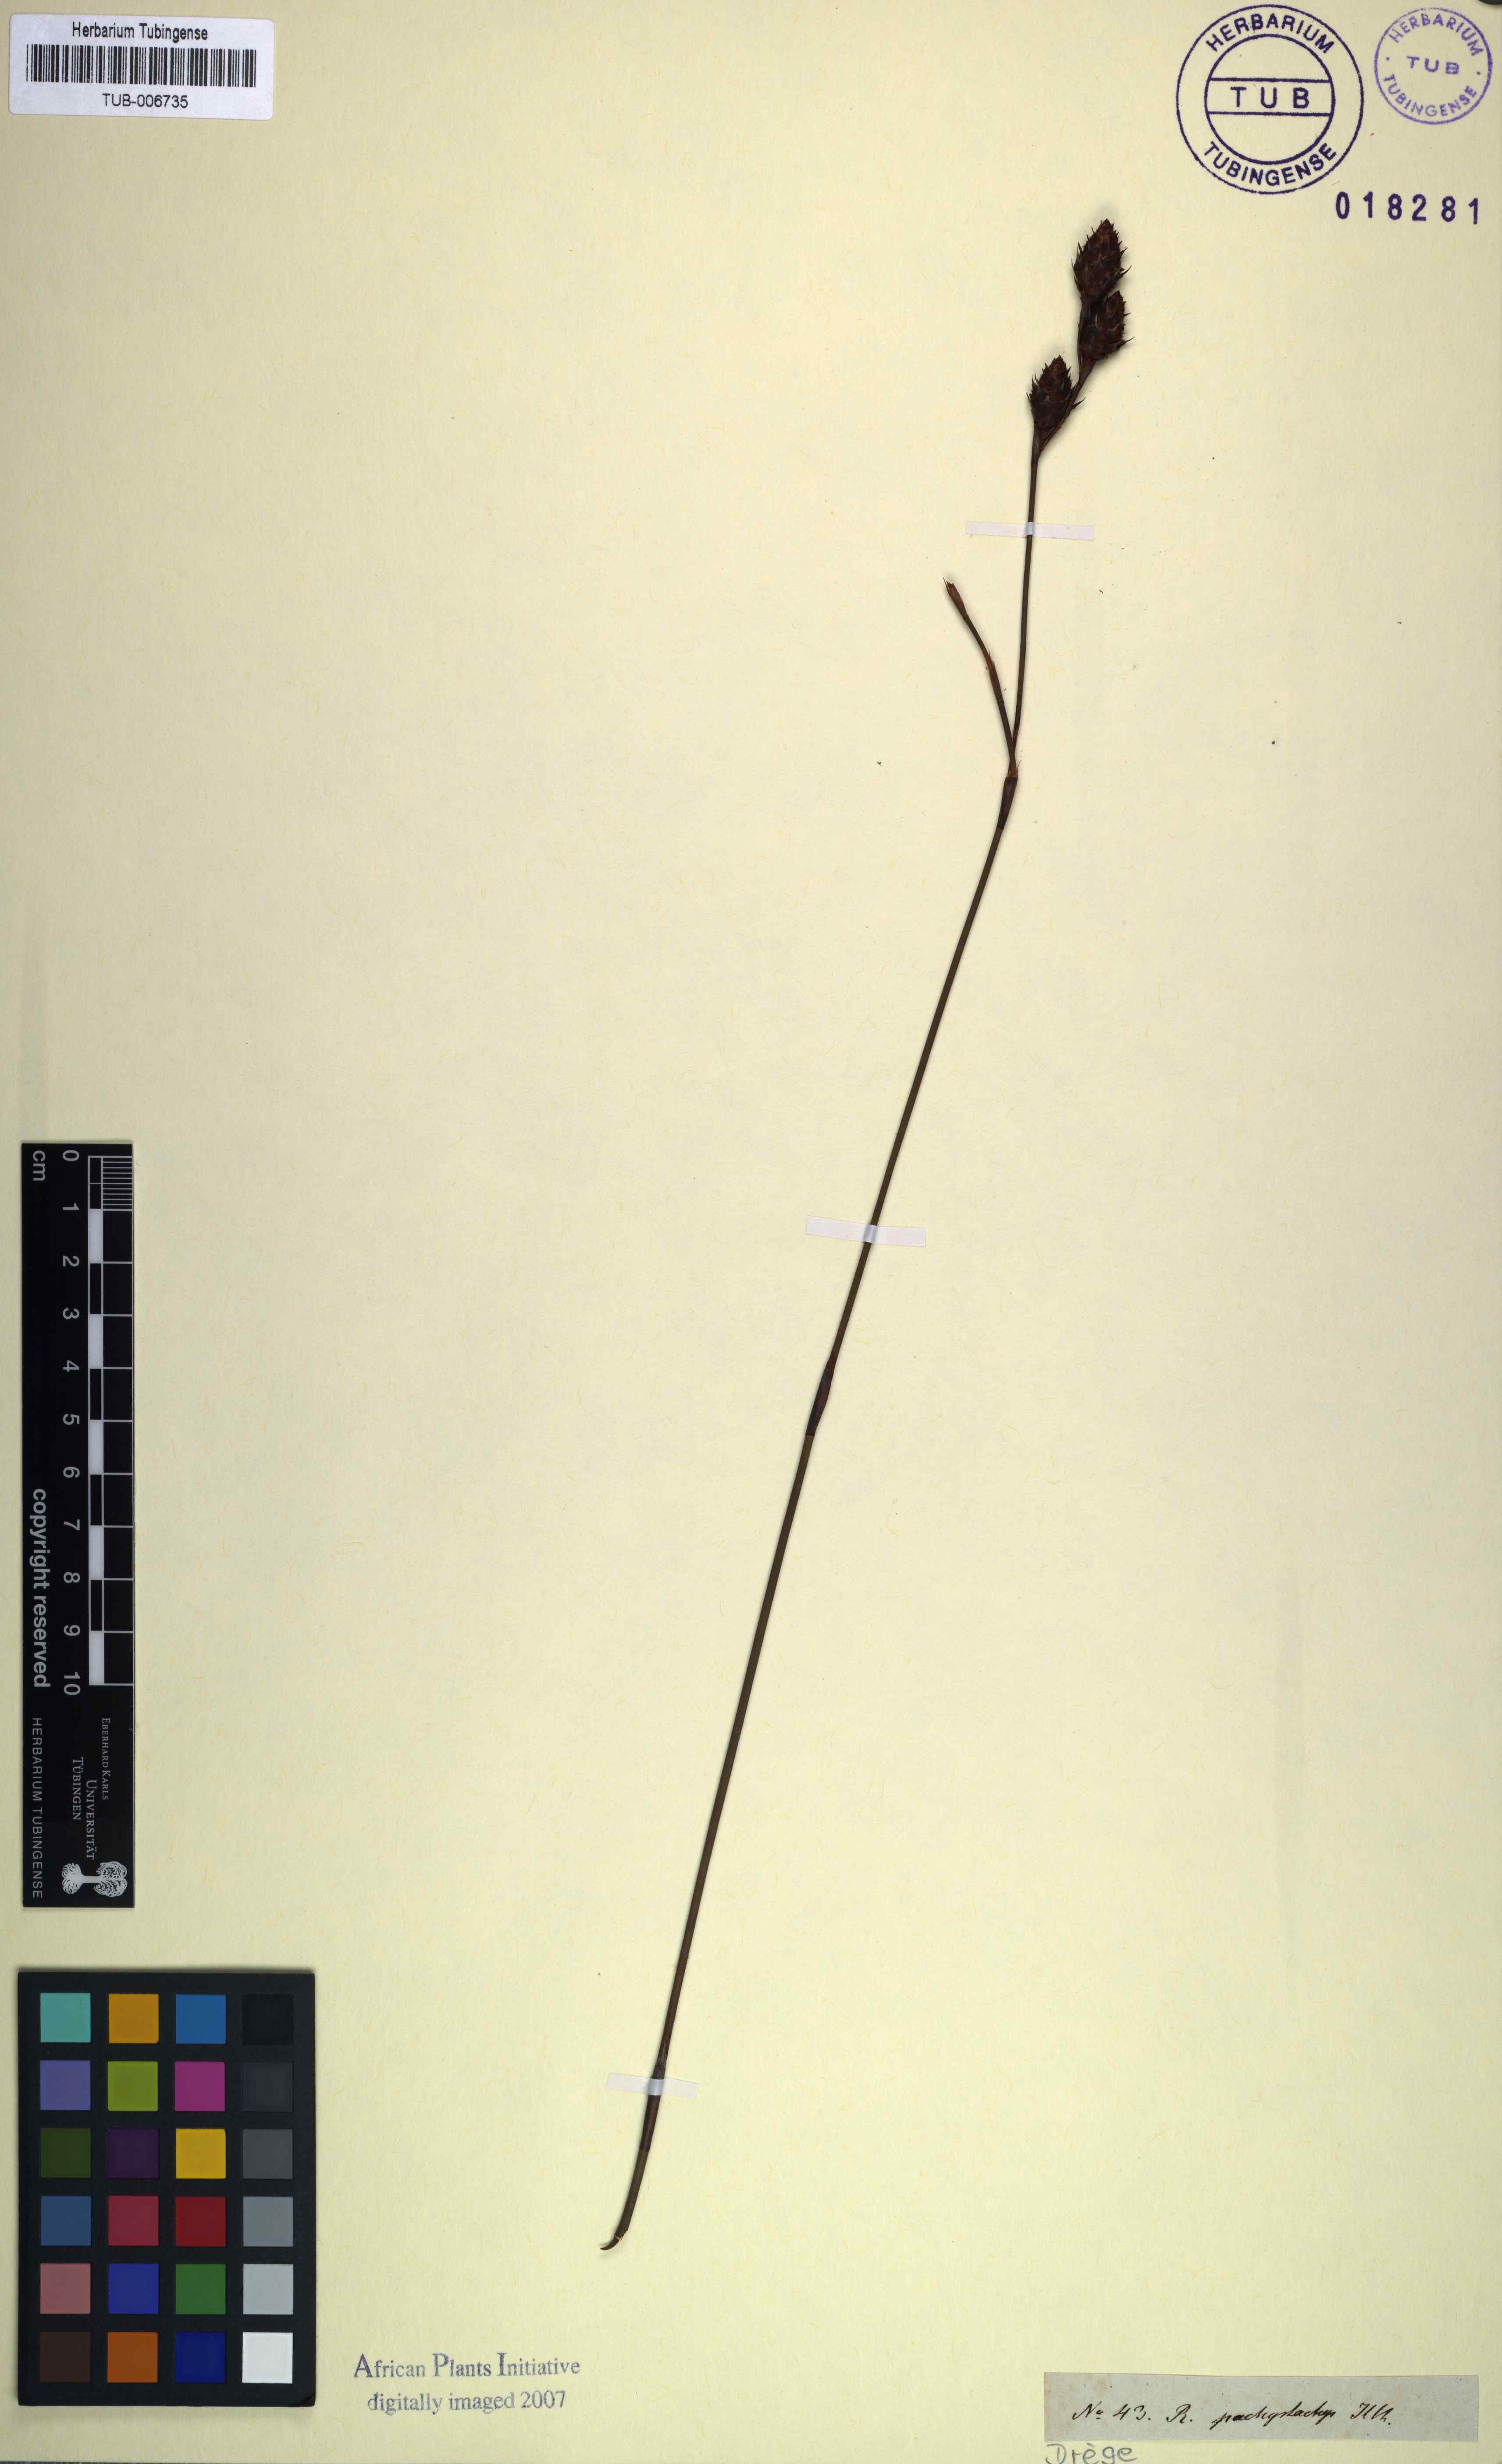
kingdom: Plantae
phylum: Tracheophyta
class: Liliopsida
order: Poales
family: Restionaceae
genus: Restio
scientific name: Restio pachystachyus
